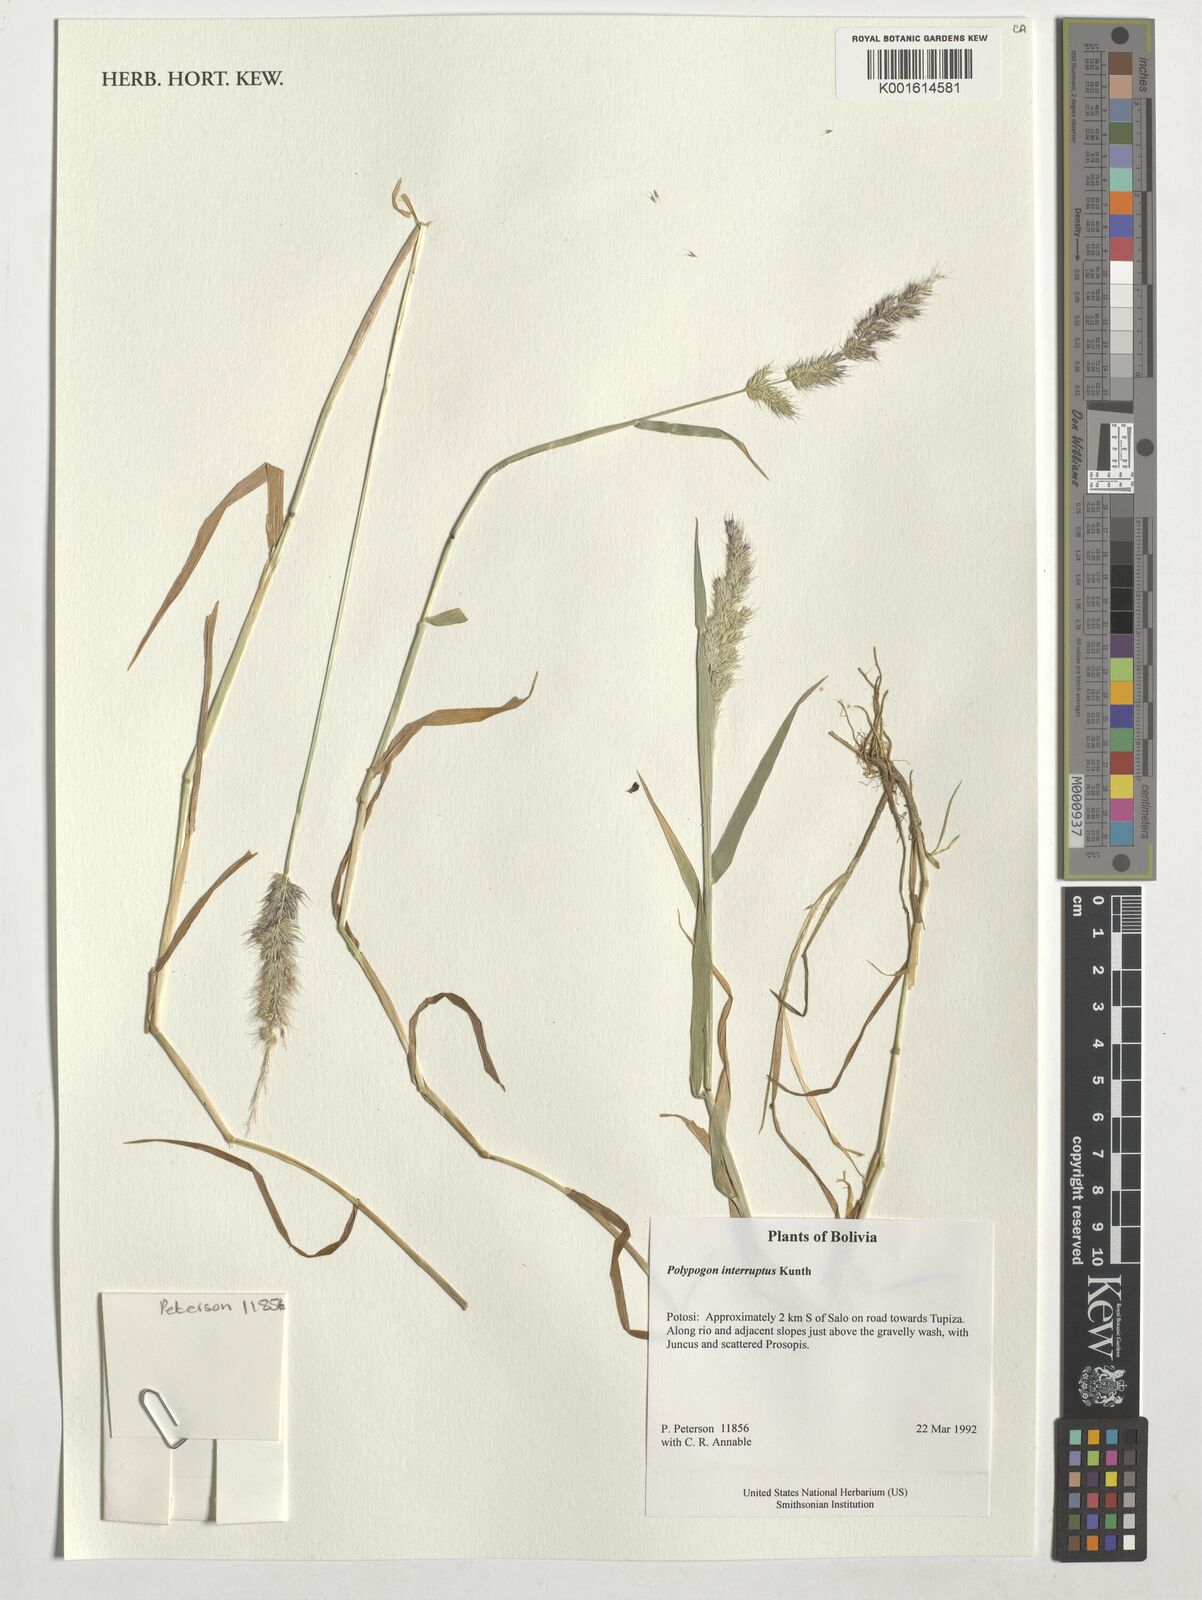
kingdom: Plantae
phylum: Tracheophyta
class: Liliopsida
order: Poales
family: Poaceae
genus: Polypogon
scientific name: Polypogon interruptus
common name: Ditch polypogon
